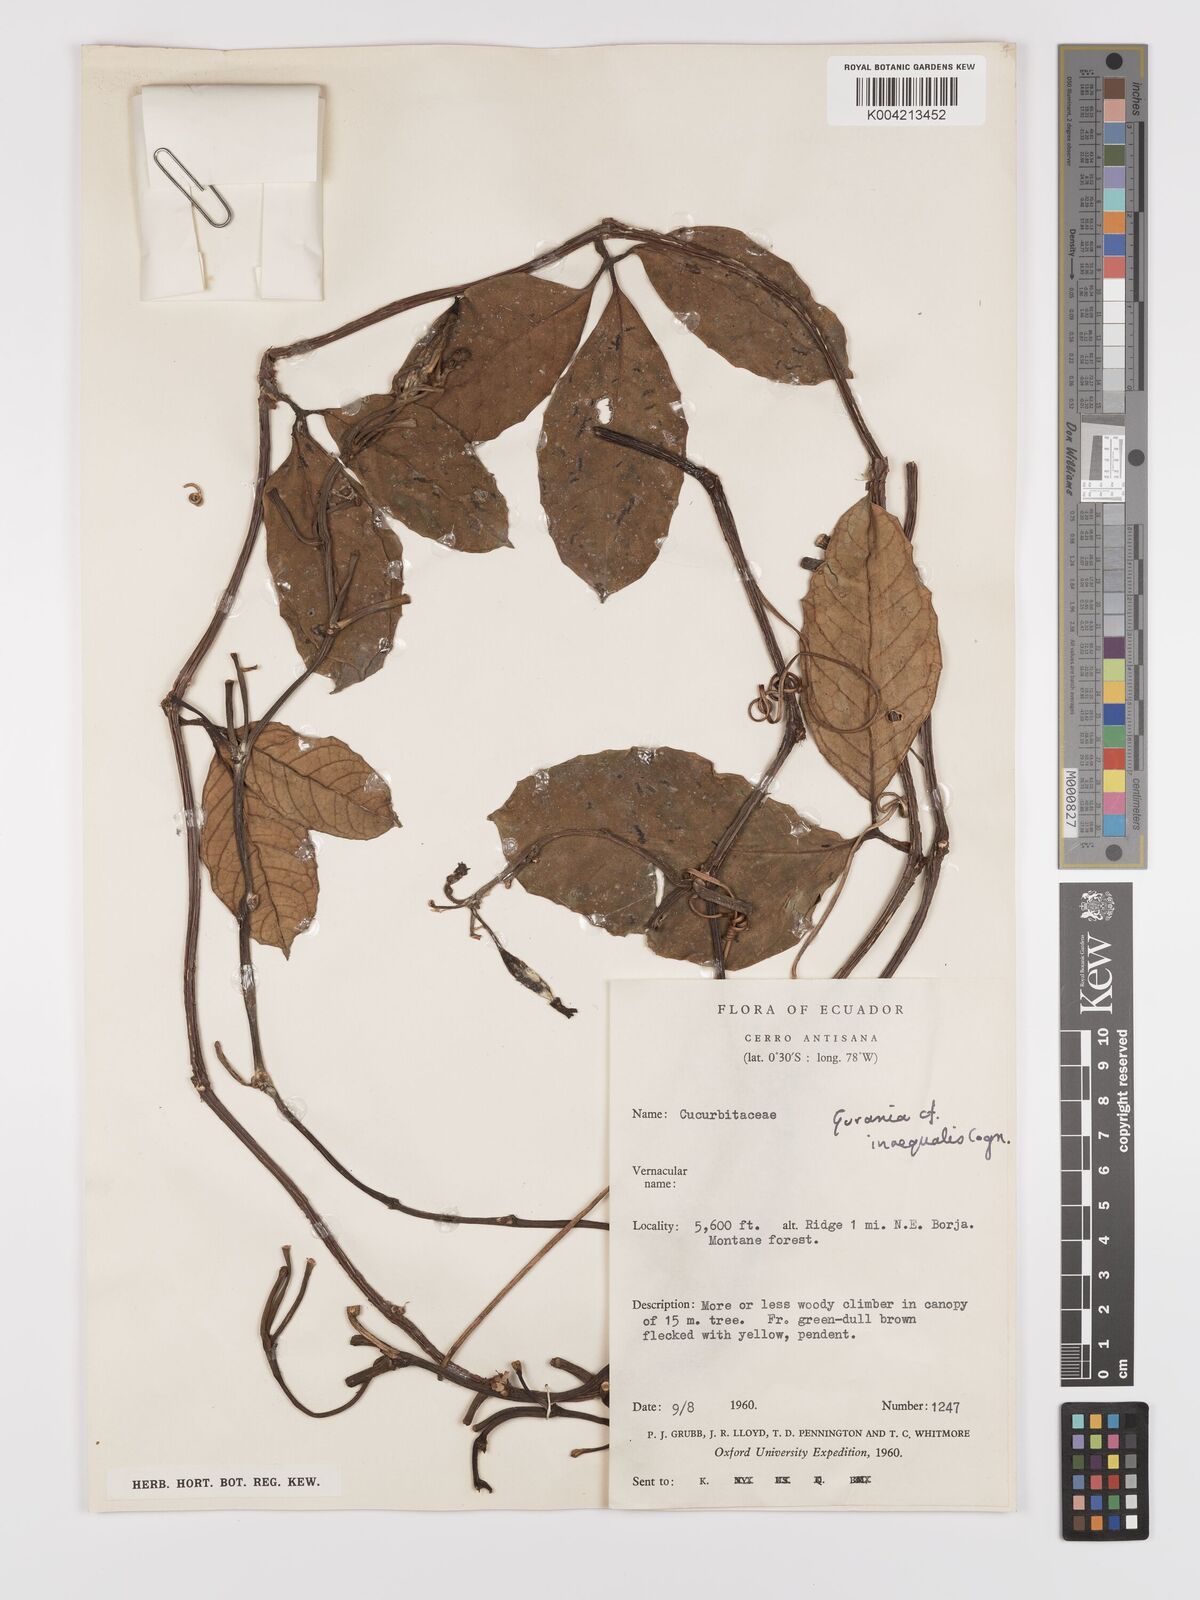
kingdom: Plantae
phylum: Tracheophyta
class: Magnoliopsida
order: Cucurbitales
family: Cucurbitaceae
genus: Psiguria
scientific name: Psiguria triphylla
